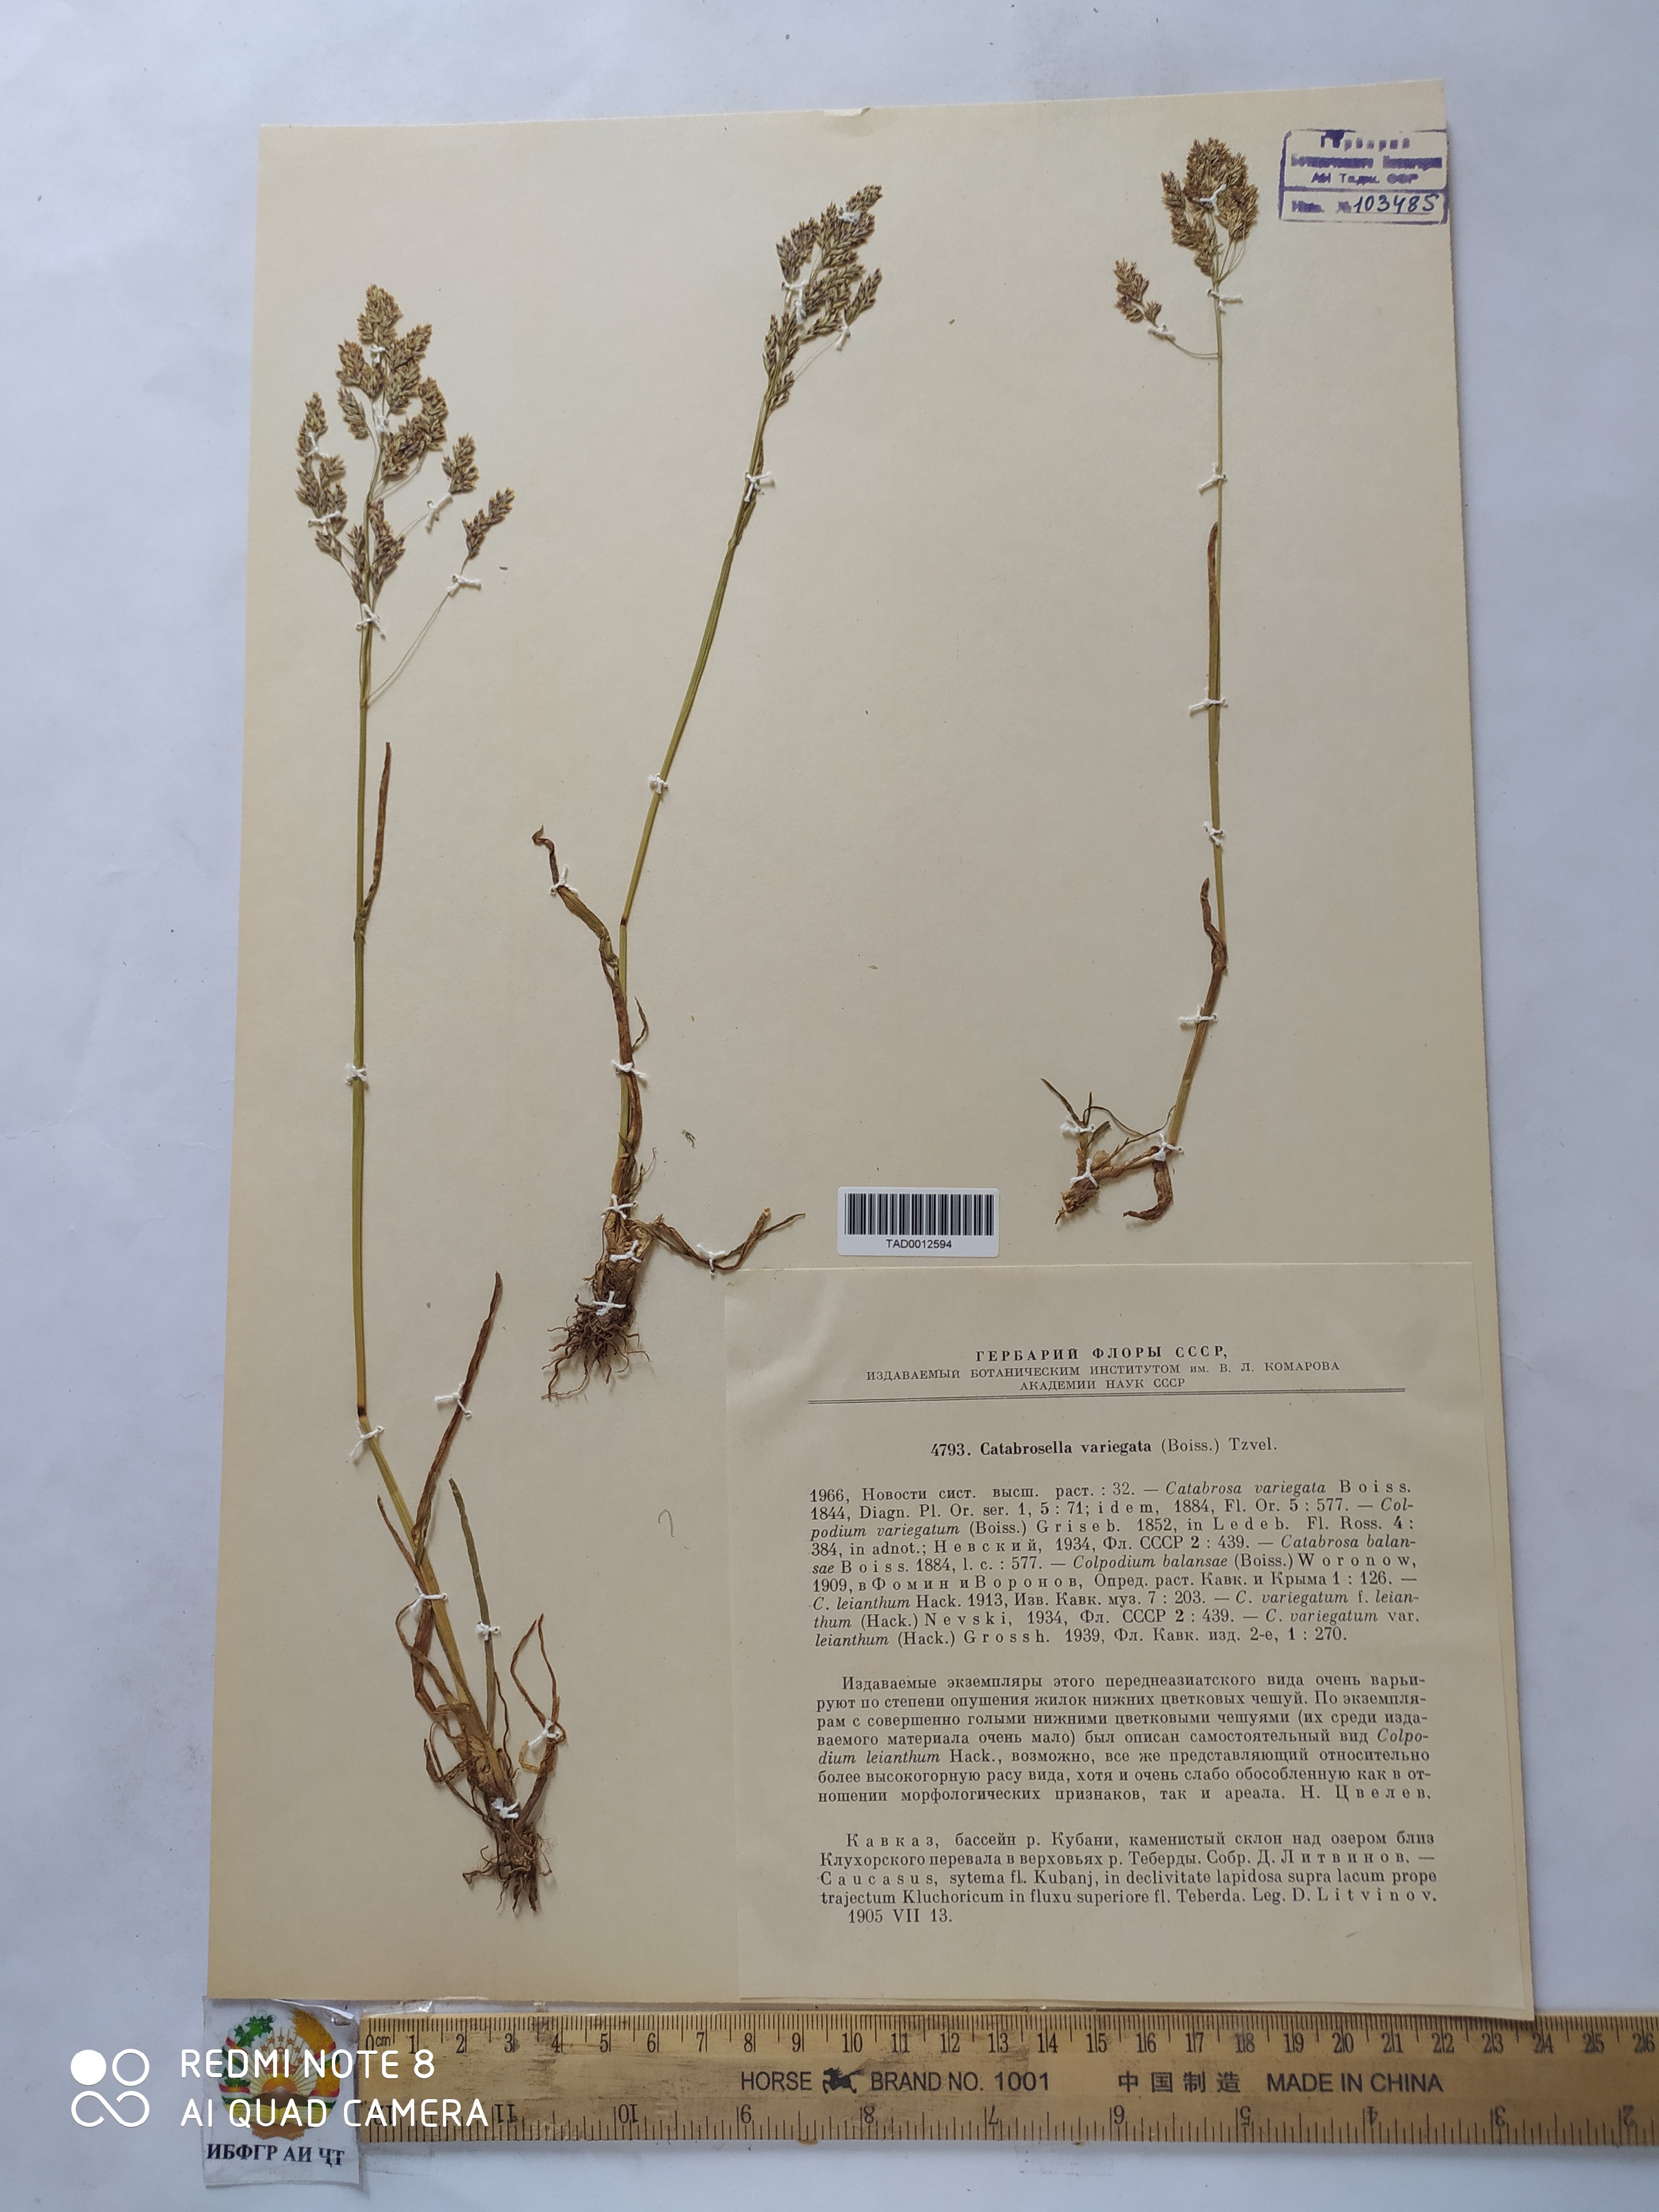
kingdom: Plantae
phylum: Tracheophyta
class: Liliopsida
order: Poales
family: Poaceae
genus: Catabrosella
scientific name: Catabrosella variegata
